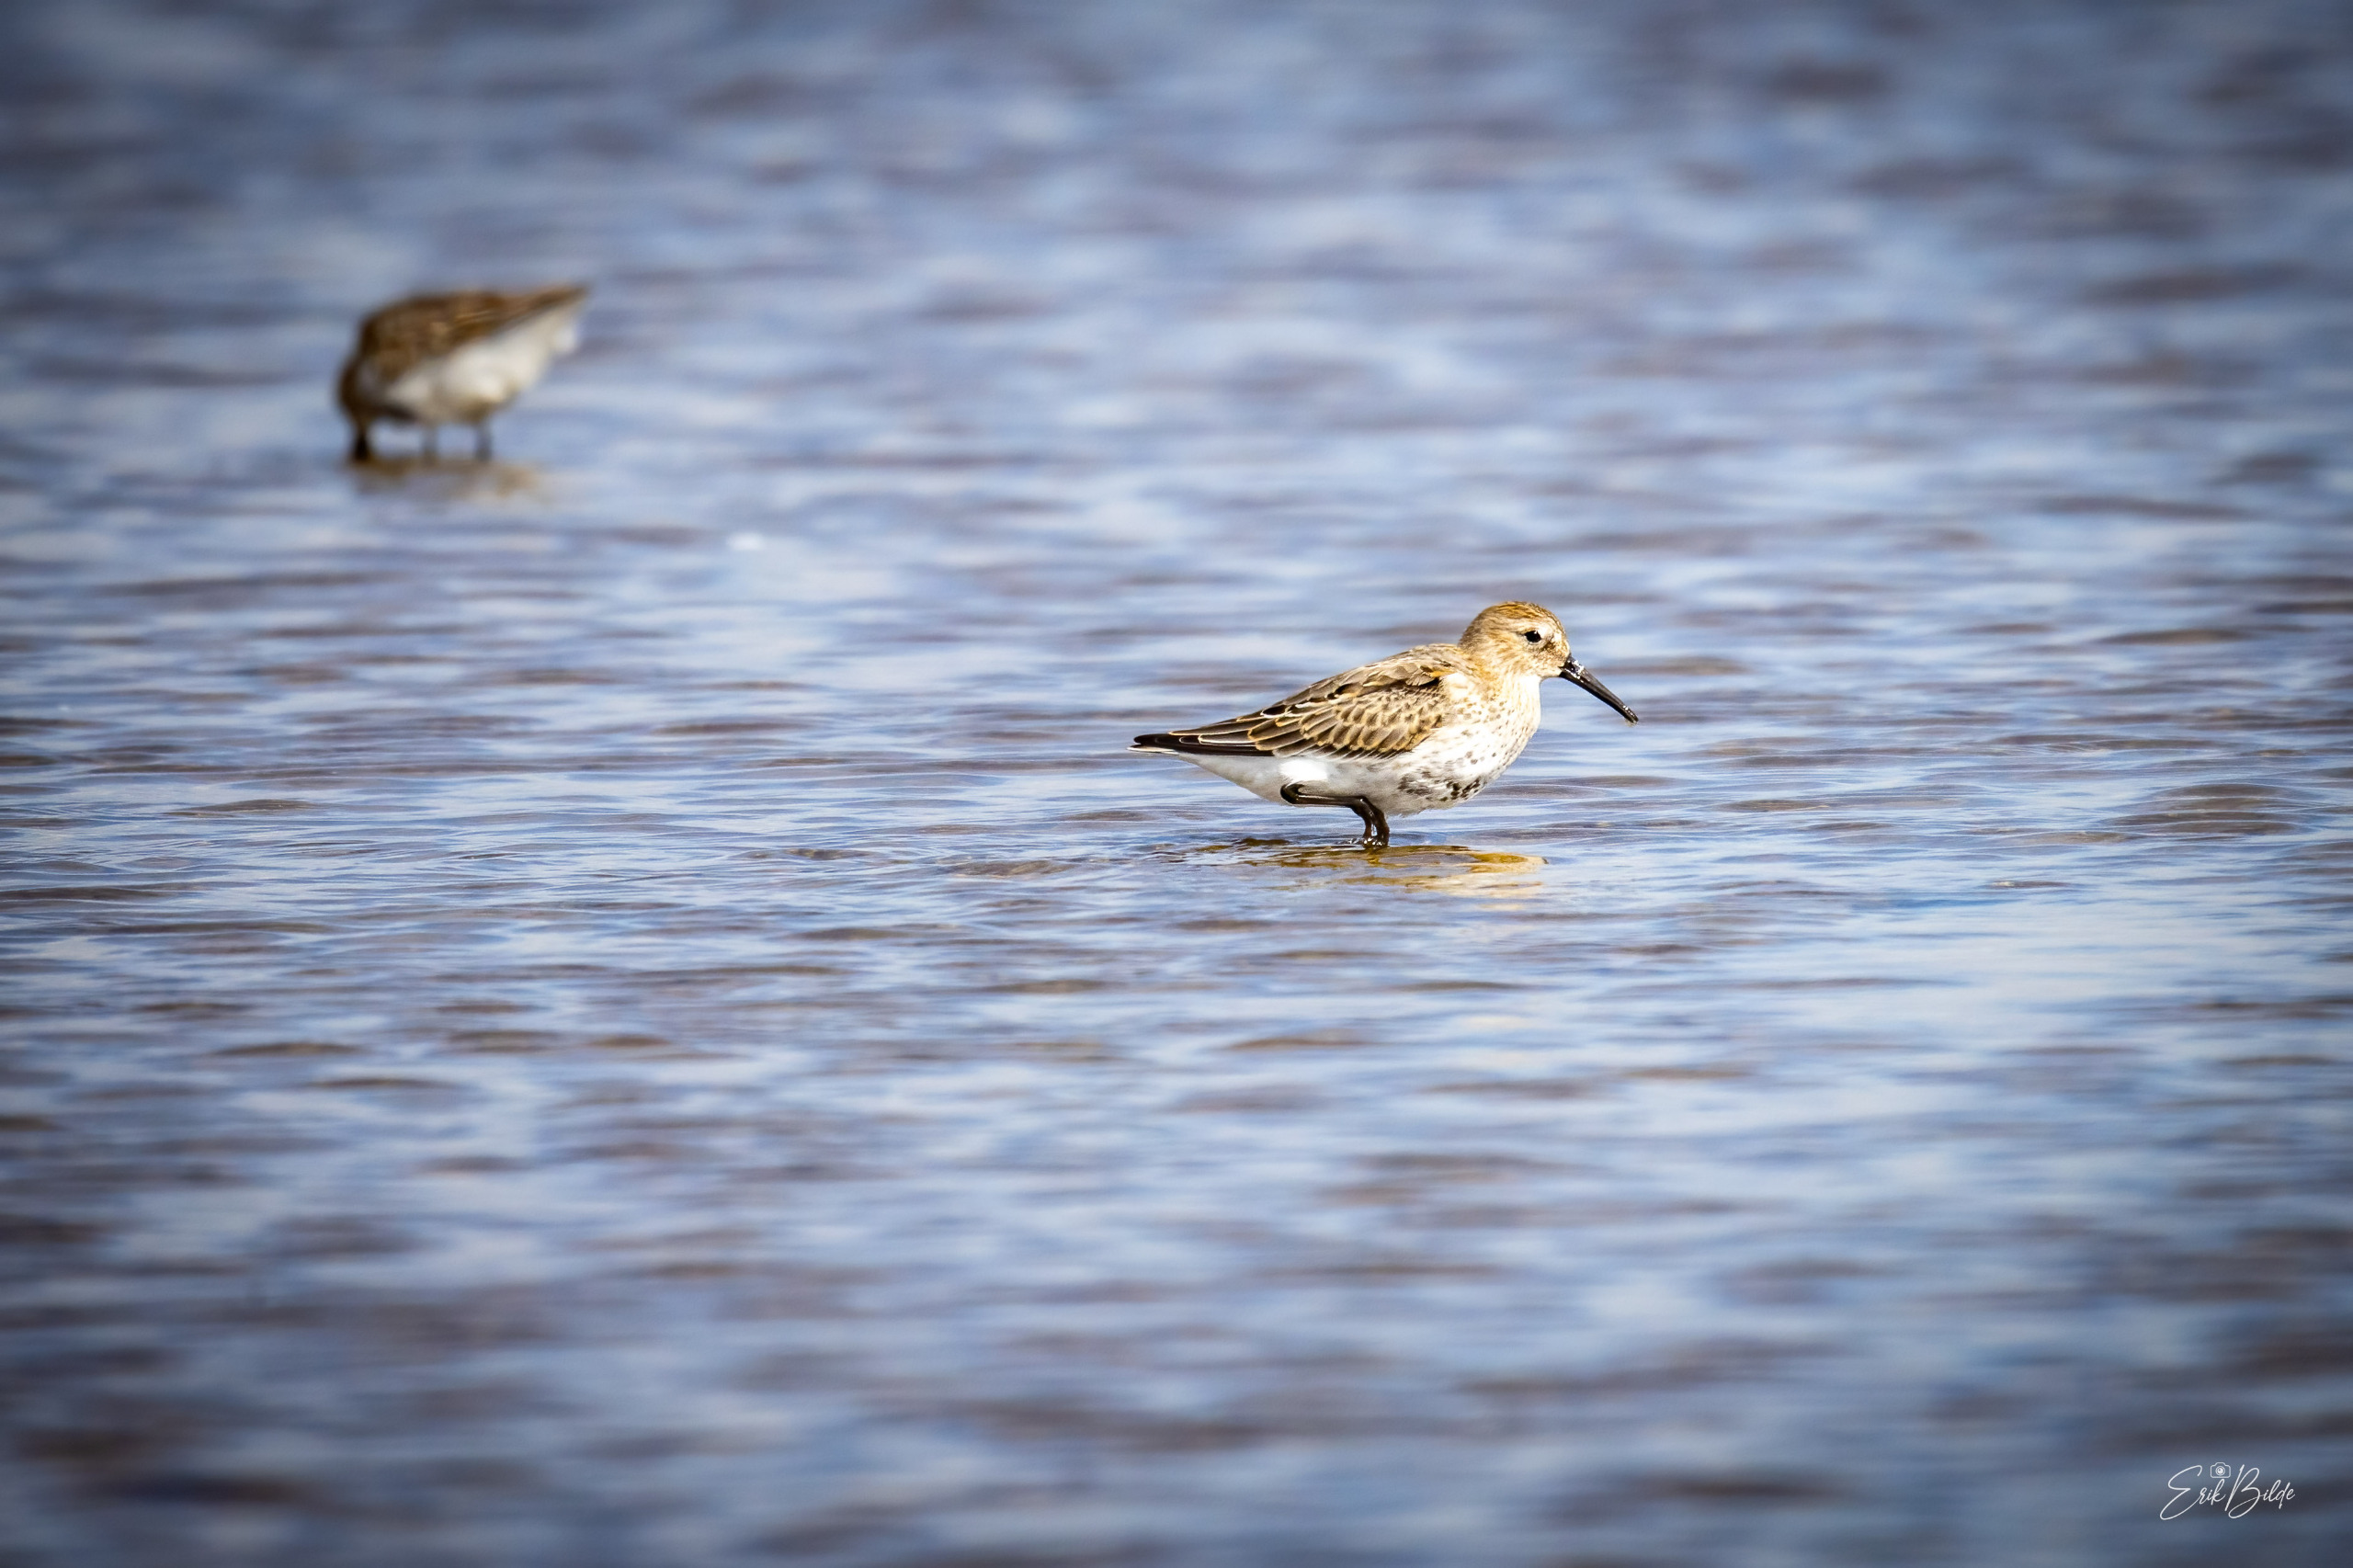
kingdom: Animalia
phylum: Chordata
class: Aves
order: Charadriiformes
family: Scolopacidae
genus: Calidris
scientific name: Calidris alpina
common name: Almindelig ryle
